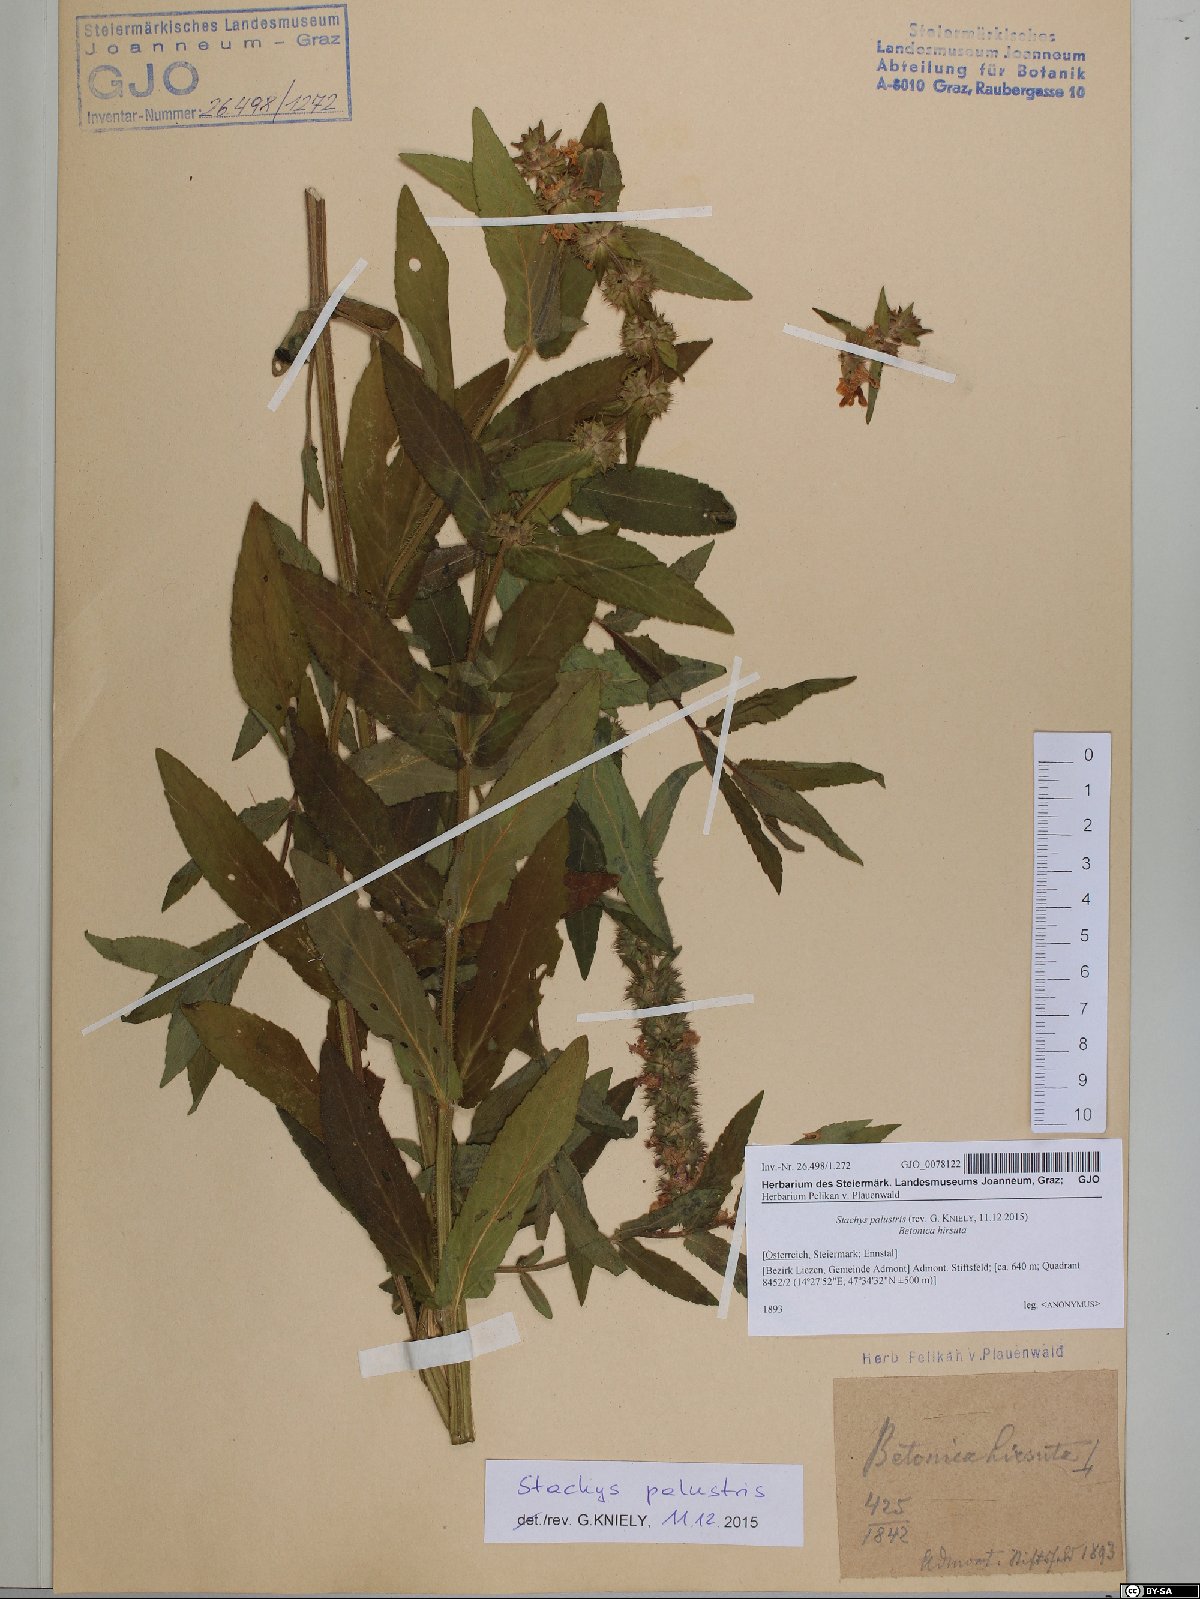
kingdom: Plantae
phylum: Tracheophyta
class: Magnoliopsida
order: Lamiales
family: Lamiaceae
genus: Stachys
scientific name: Stachys palustris
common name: Marsh woundwort
